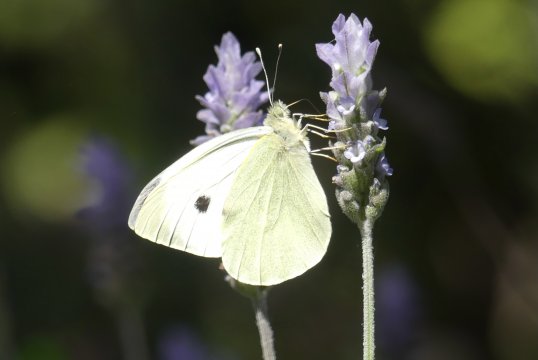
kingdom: Animalia
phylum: Arthropoda
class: Insecta
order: Lepidoptera
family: Pieridae
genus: Pieris
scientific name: Pieris brassicae
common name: Large White Butterfly
